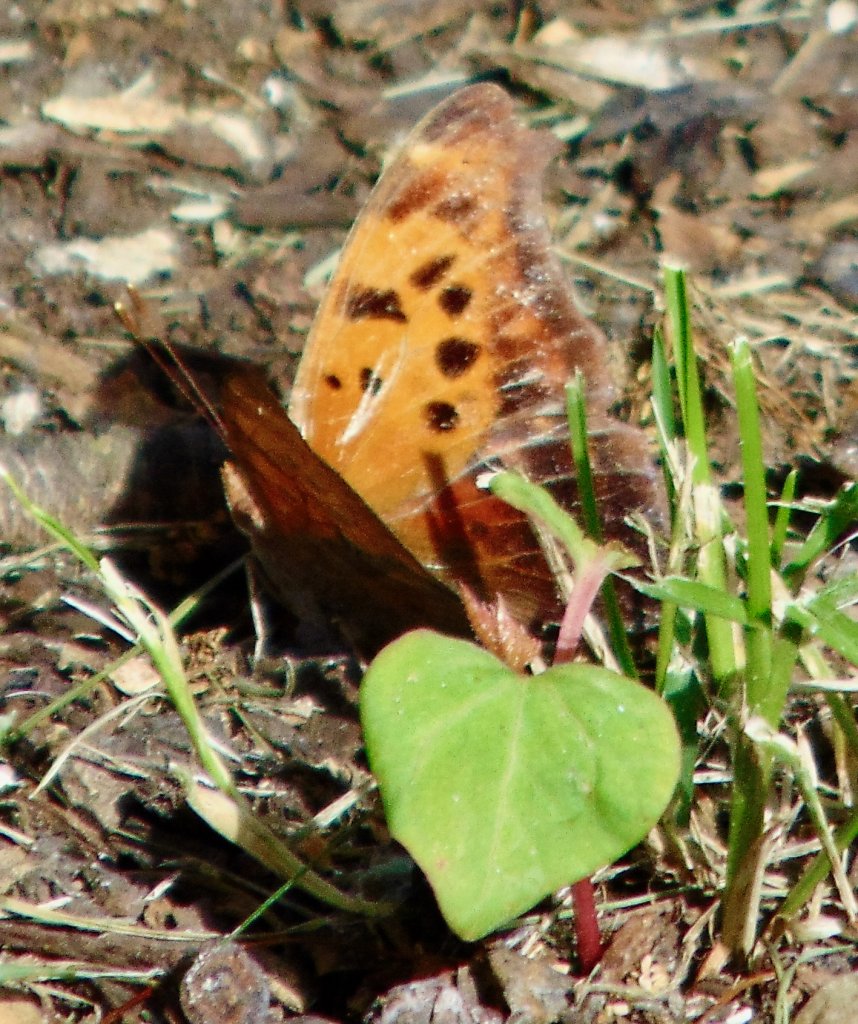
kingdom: Animalia
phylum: Arthropoda
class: Insecta
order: Lepidoptera
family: Nymphalidae
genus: Polygonia
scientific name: Polygonia interrogationis
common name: Question Mark
